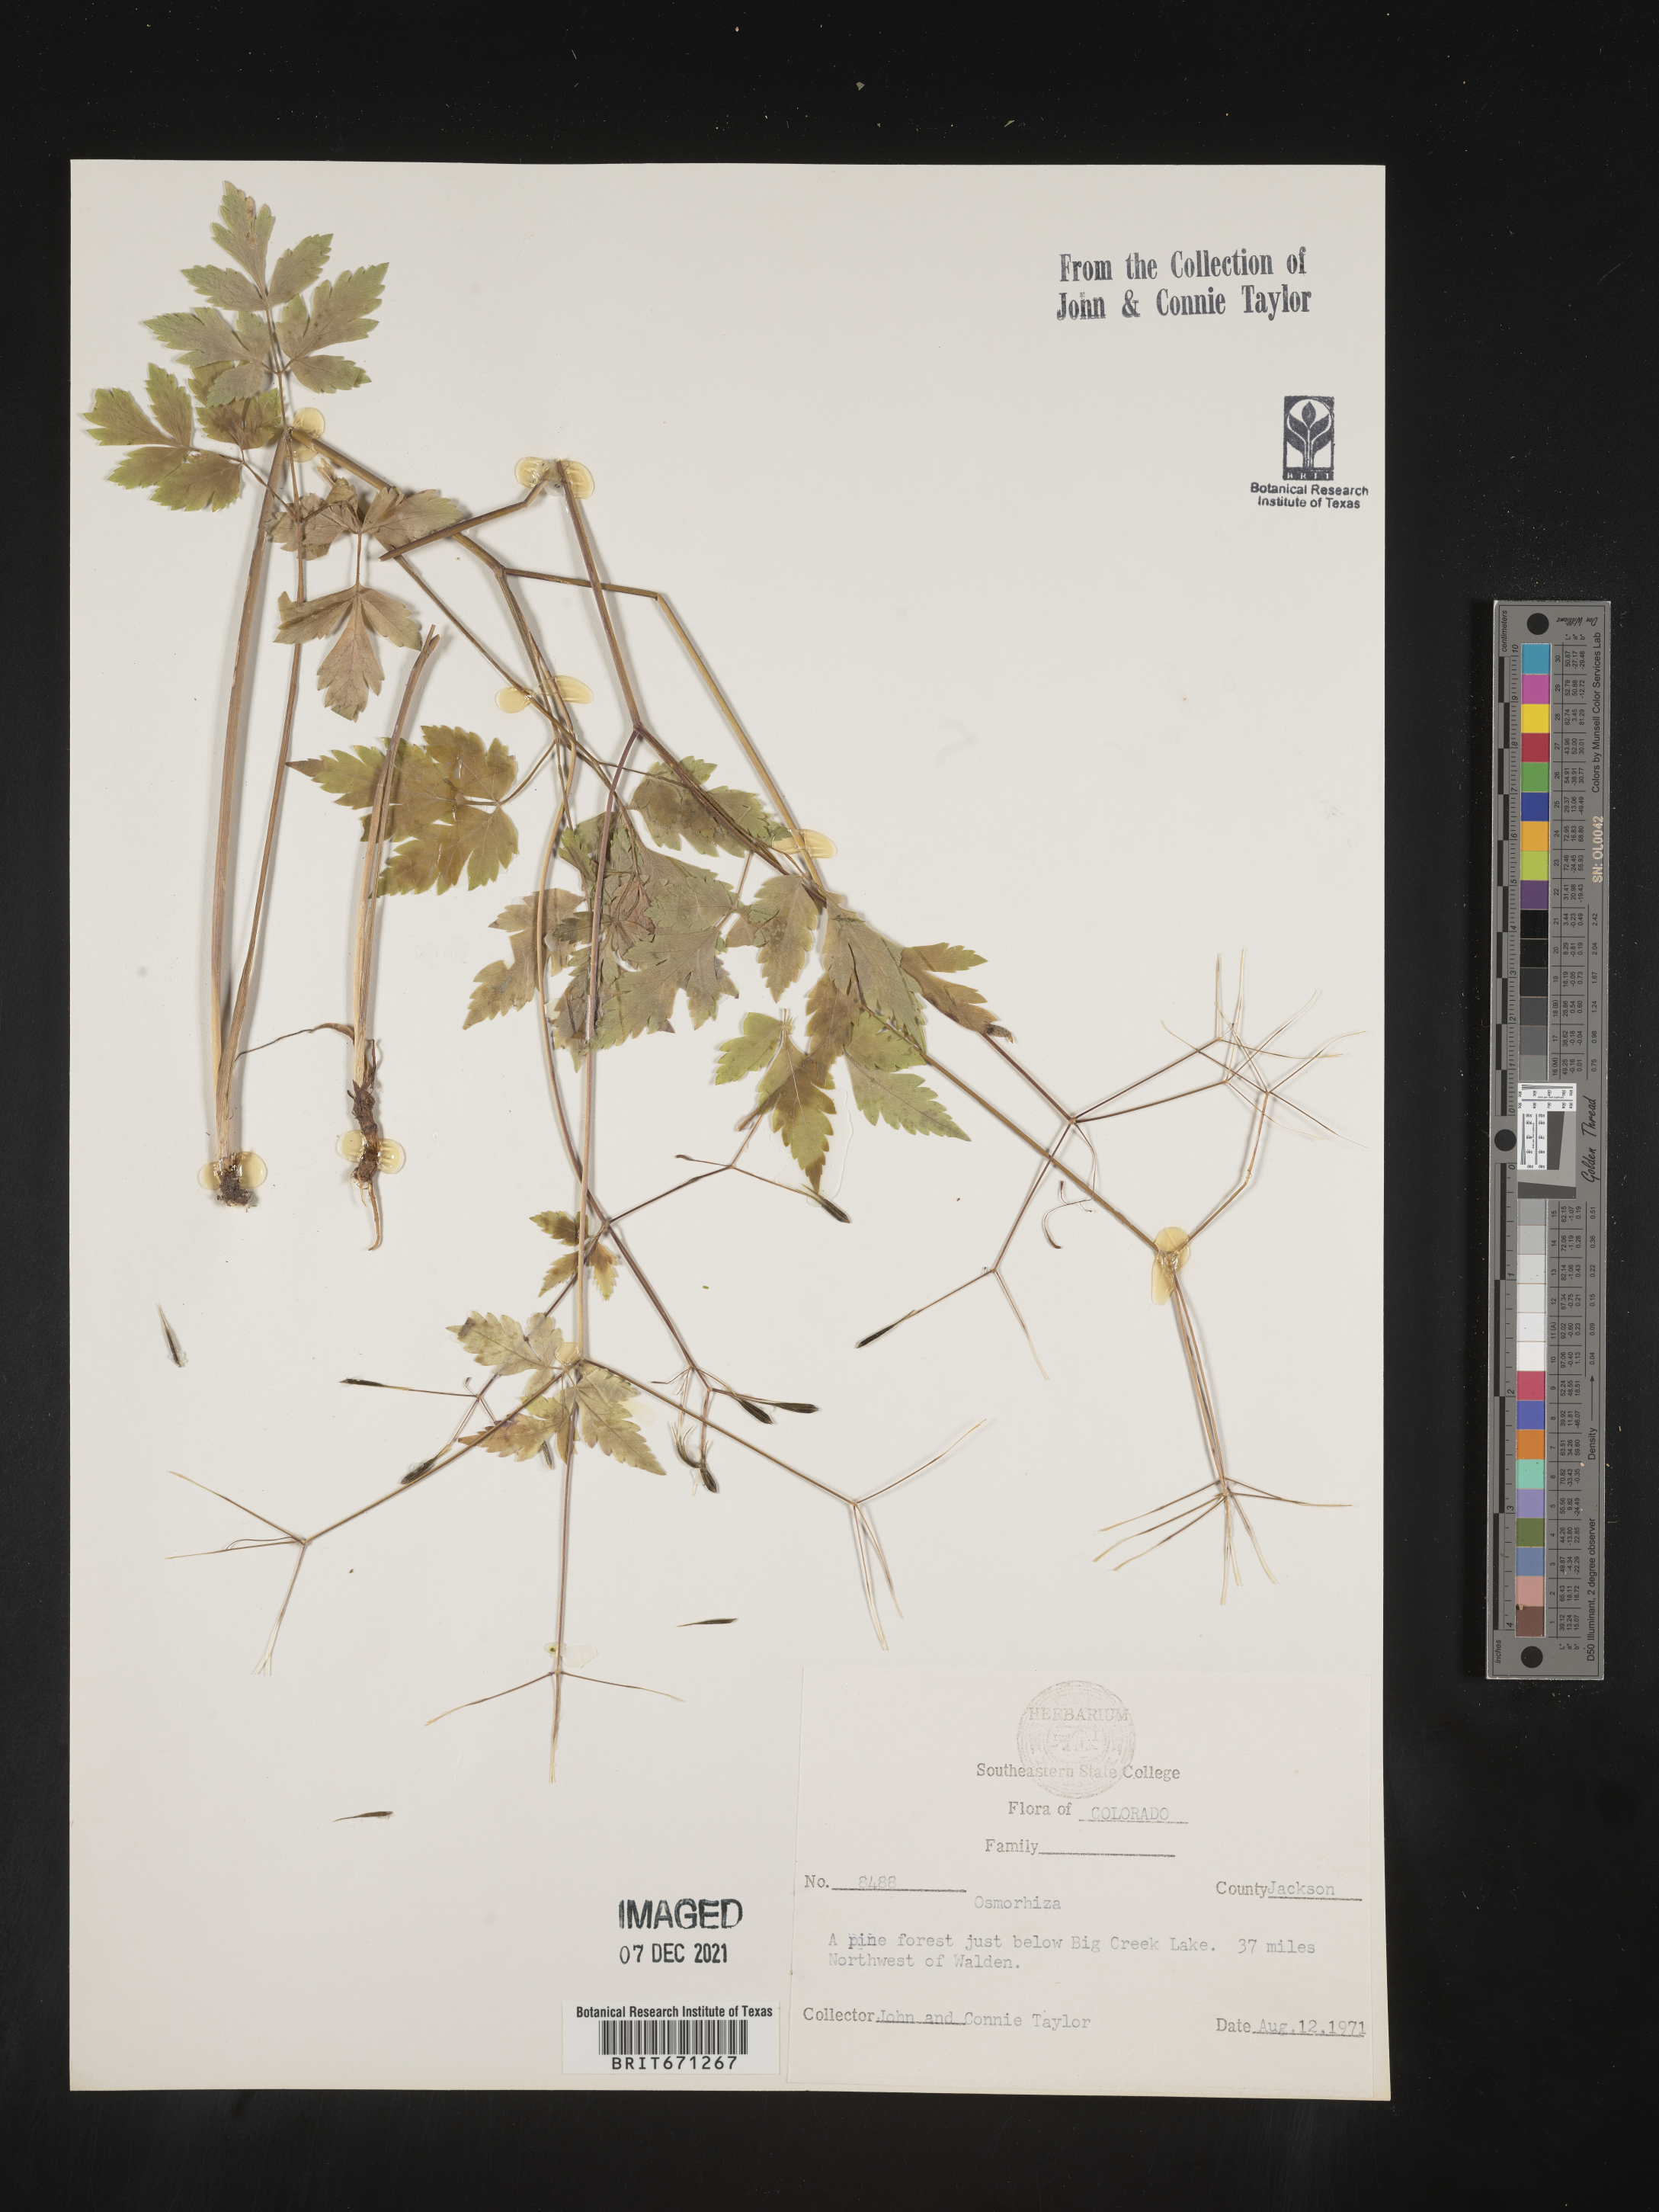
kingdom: Plantae
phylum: Tracheophyta
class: Magnoliopsida
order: Apiales
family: Apiaceae
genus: Osmorhiza
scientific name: Osmorhiza purpurea
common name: Purple sweet cicely
